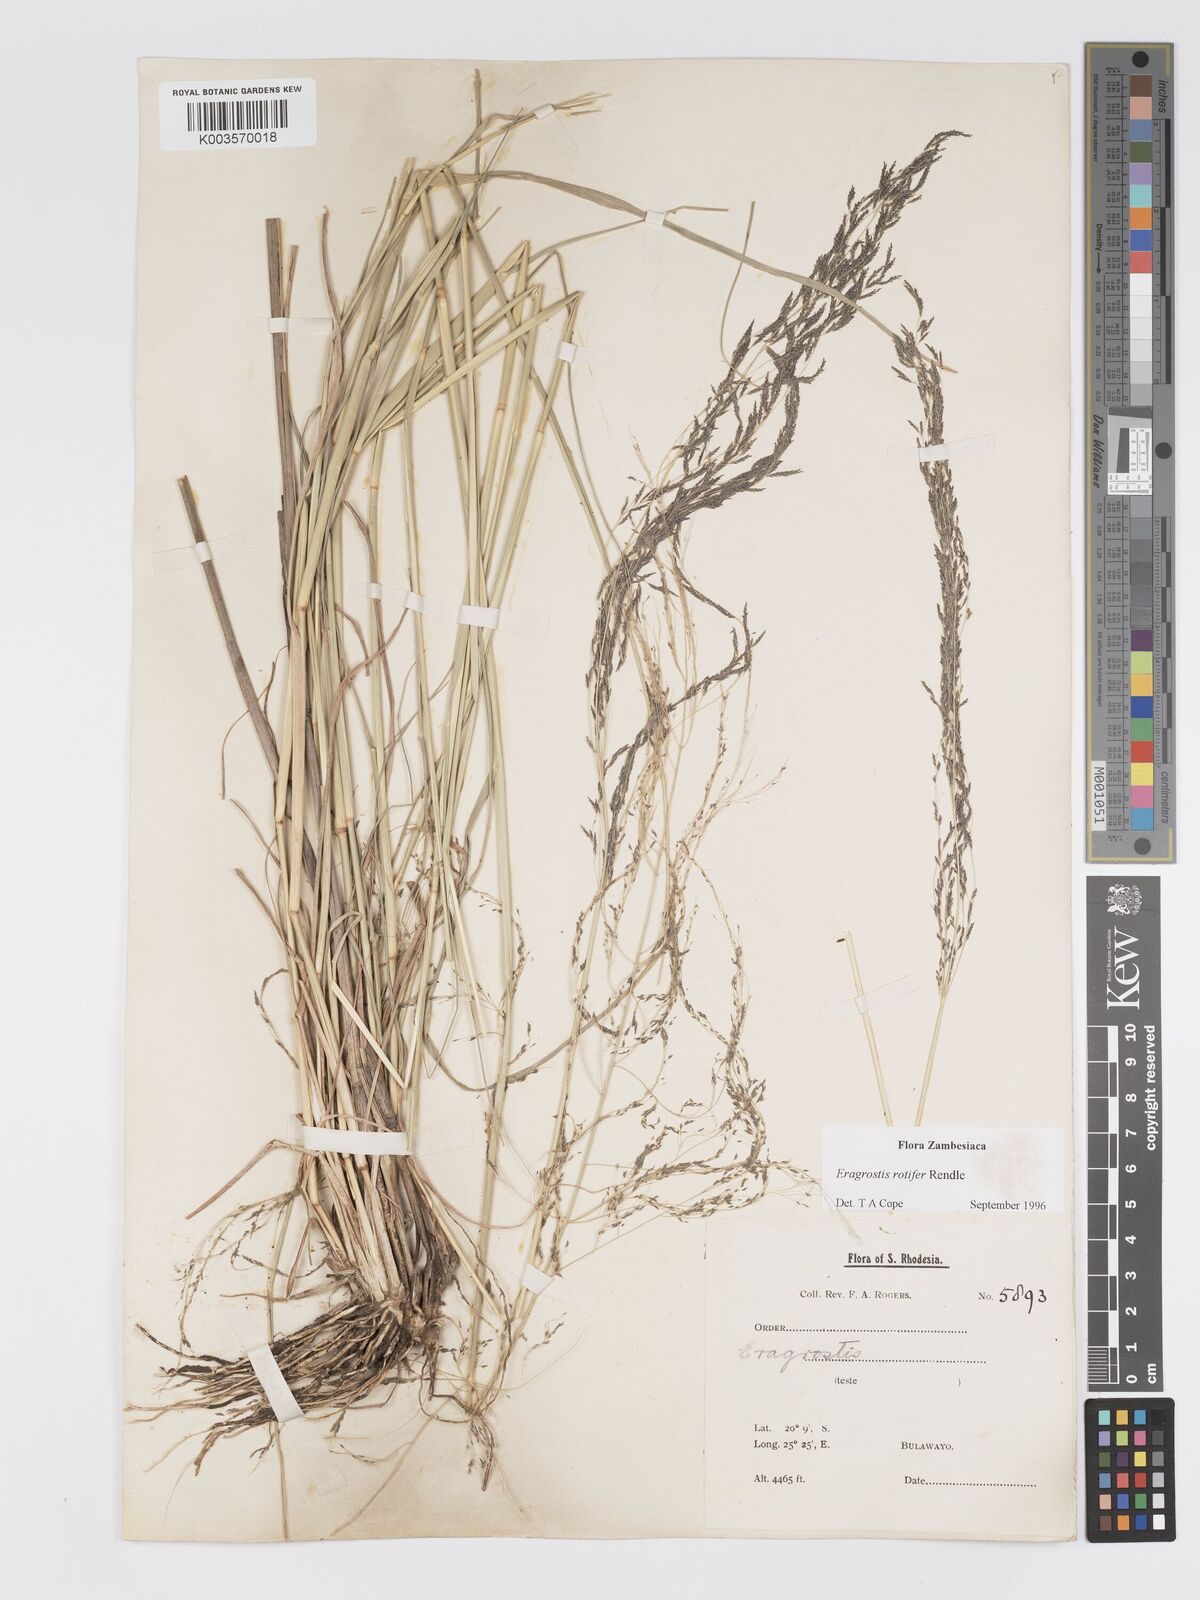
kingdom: Plantae
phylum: Tracheophyta
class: Liliopsida
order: Poales
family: Poaceae
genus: Eragrostis
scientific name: Eragrostis rotifer
